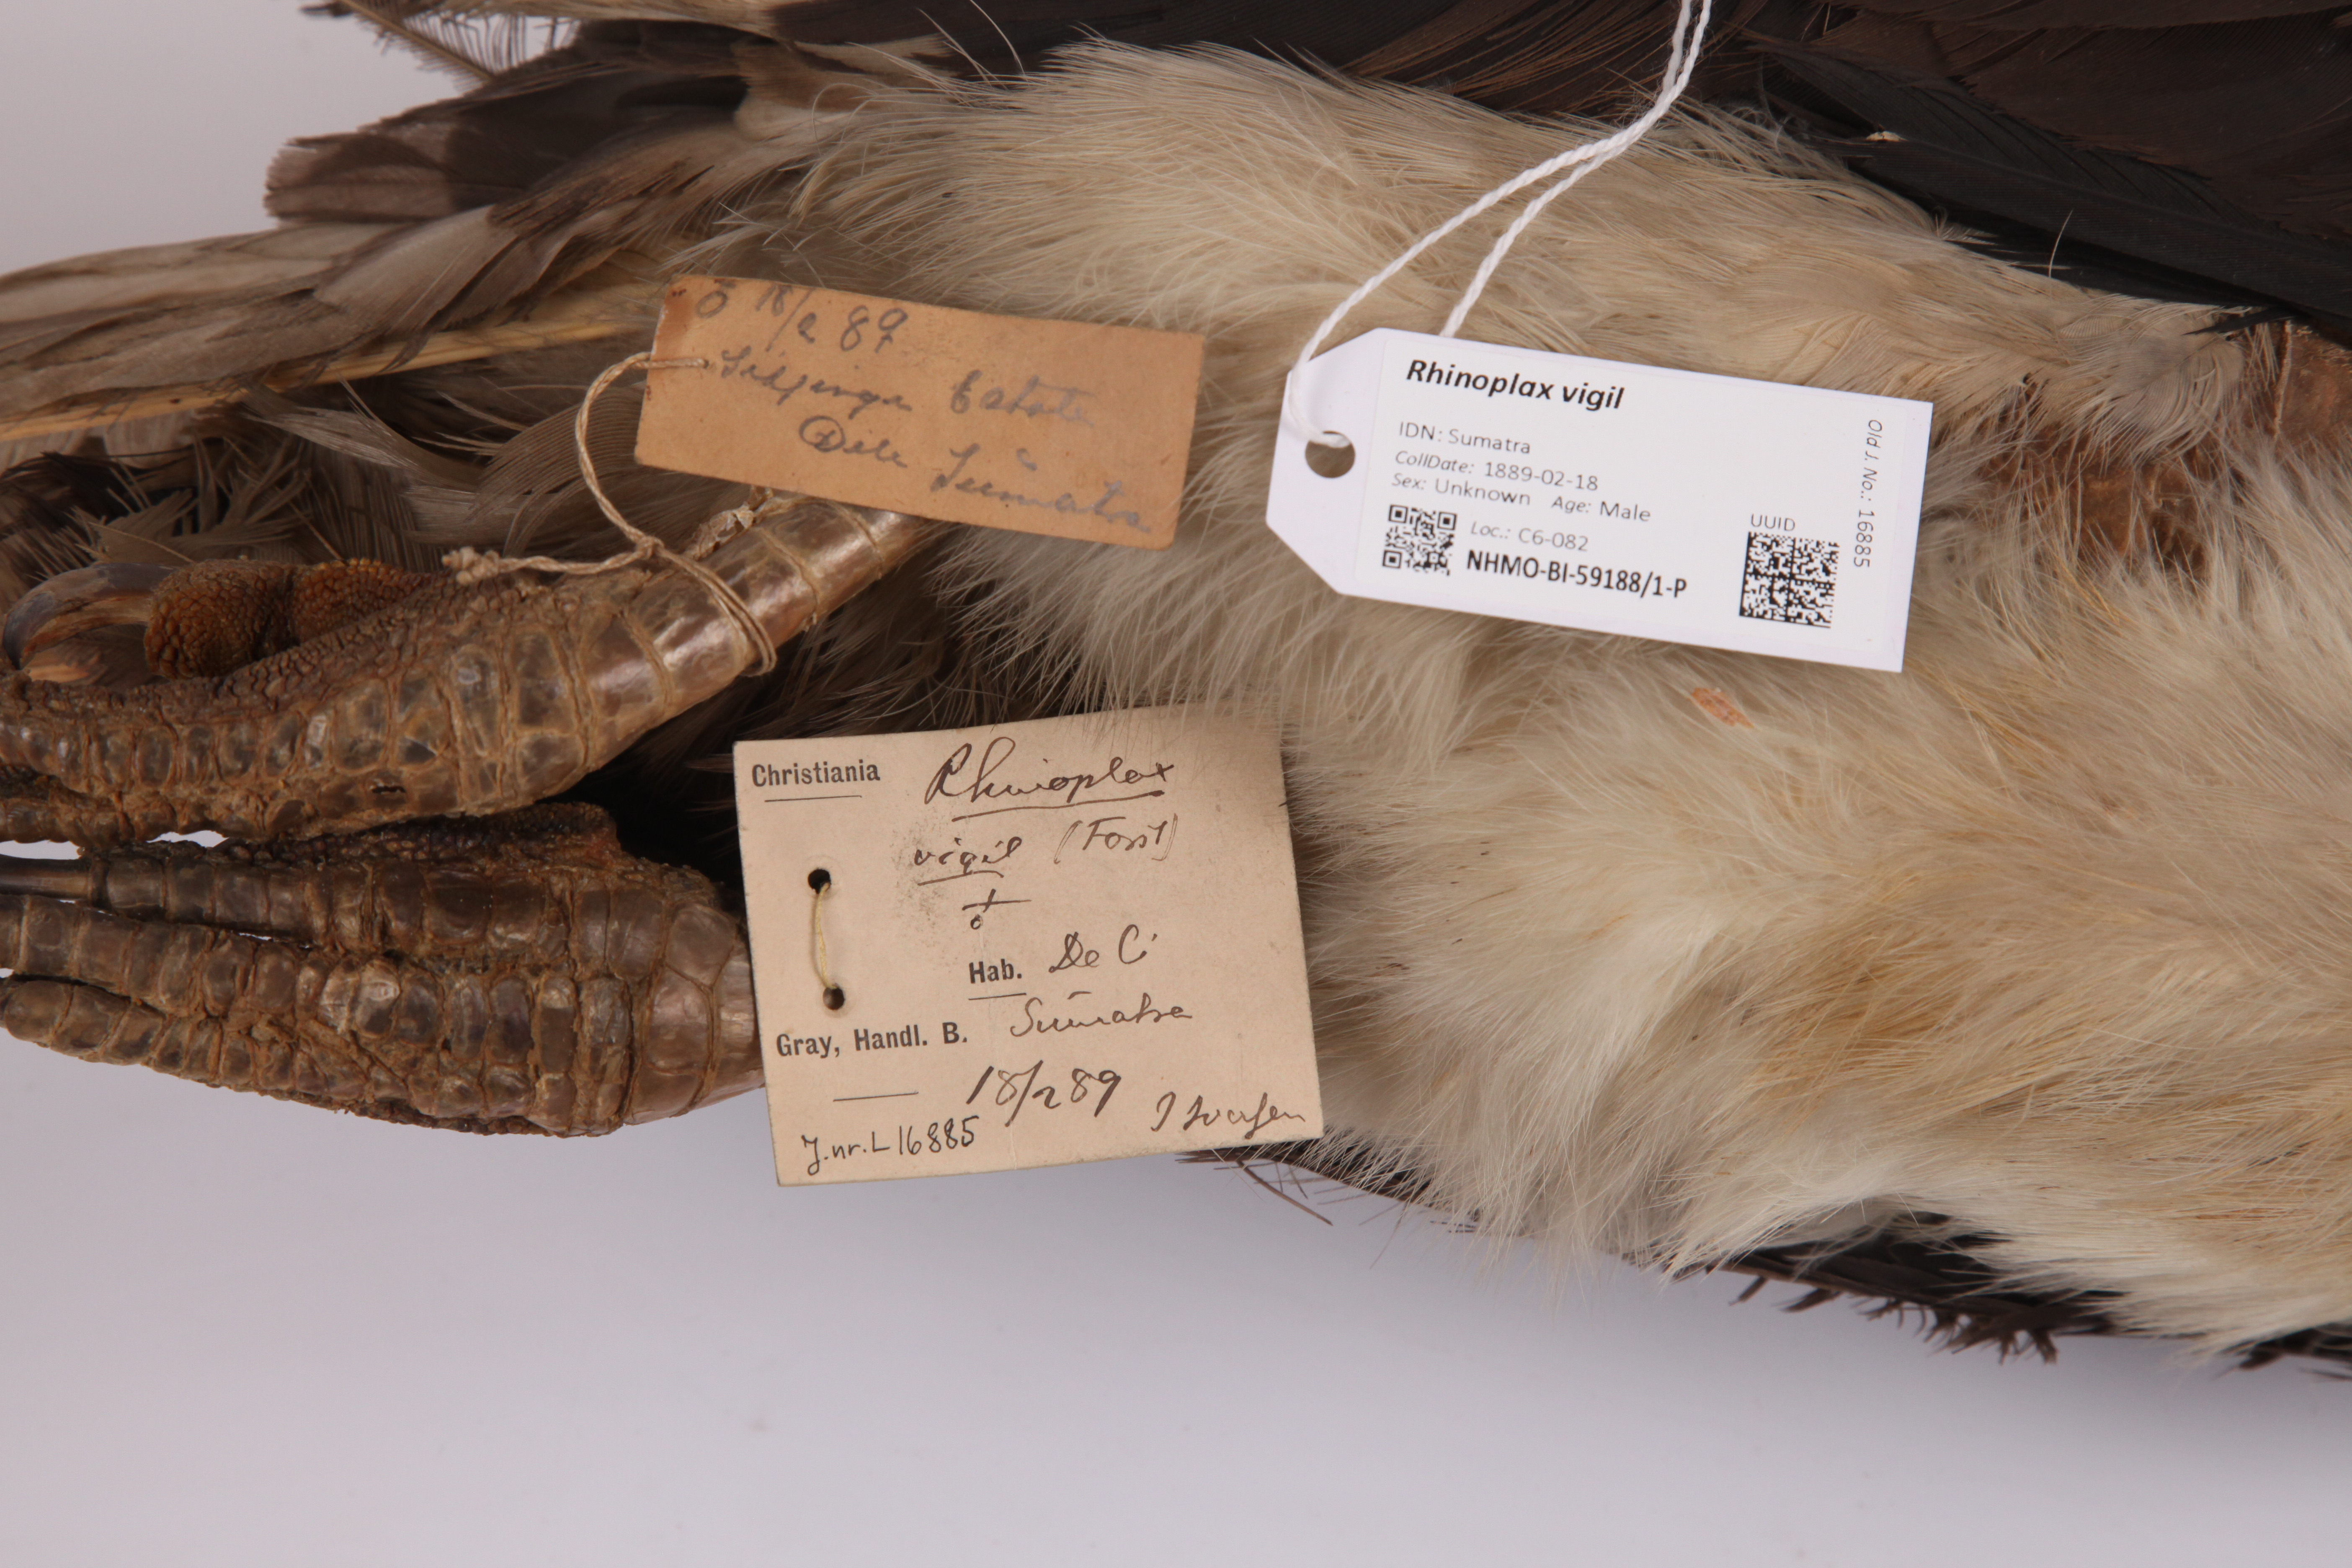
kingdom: Animalia
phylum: Chordata
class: Aves
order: Bucerotiformes
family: Bucerotidae
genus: Rhinoplax
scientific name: Rhinoplax vigil
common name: Helmeted hornbill
